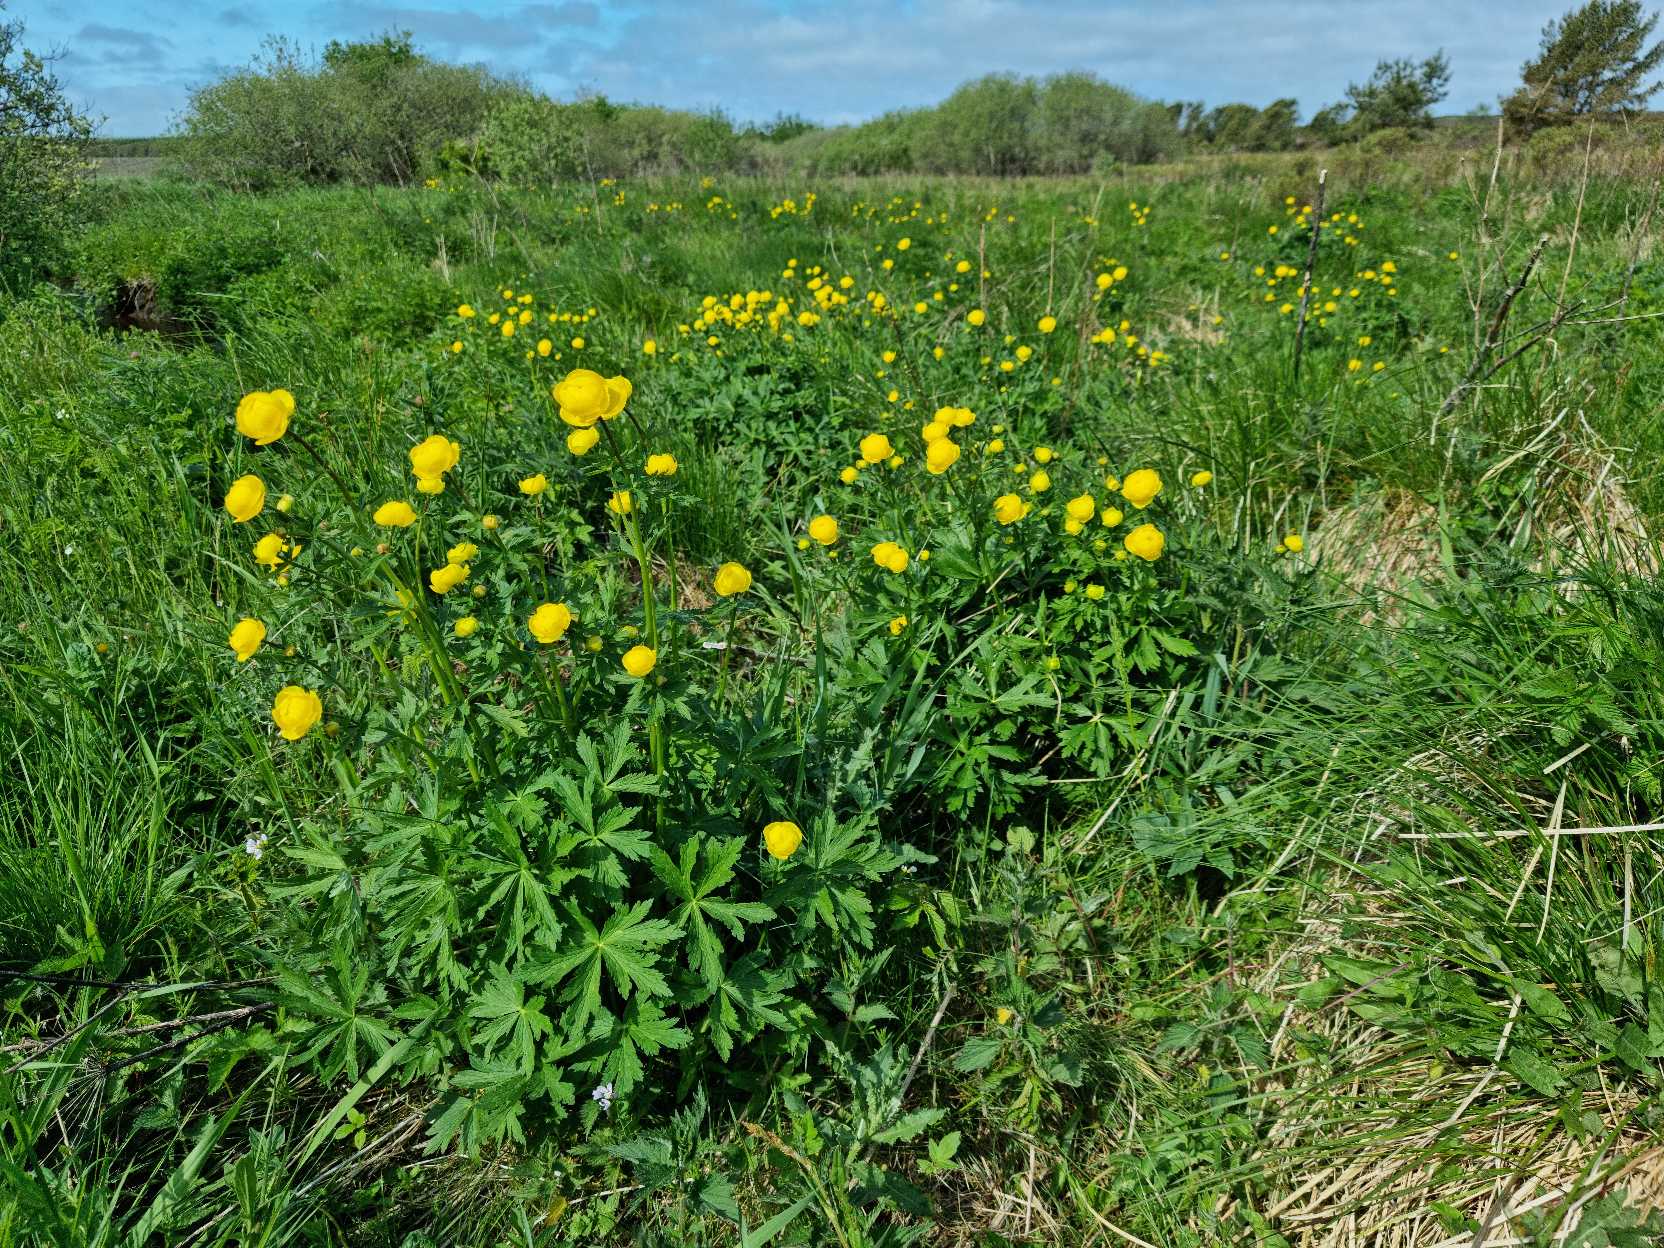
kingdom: Plantae
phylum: Tracheophyta
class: Magnoliopsida
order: Ranunculales
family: Ranunculaceae
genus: Trollius
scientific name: Trollius europaeus
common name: Engblomme
